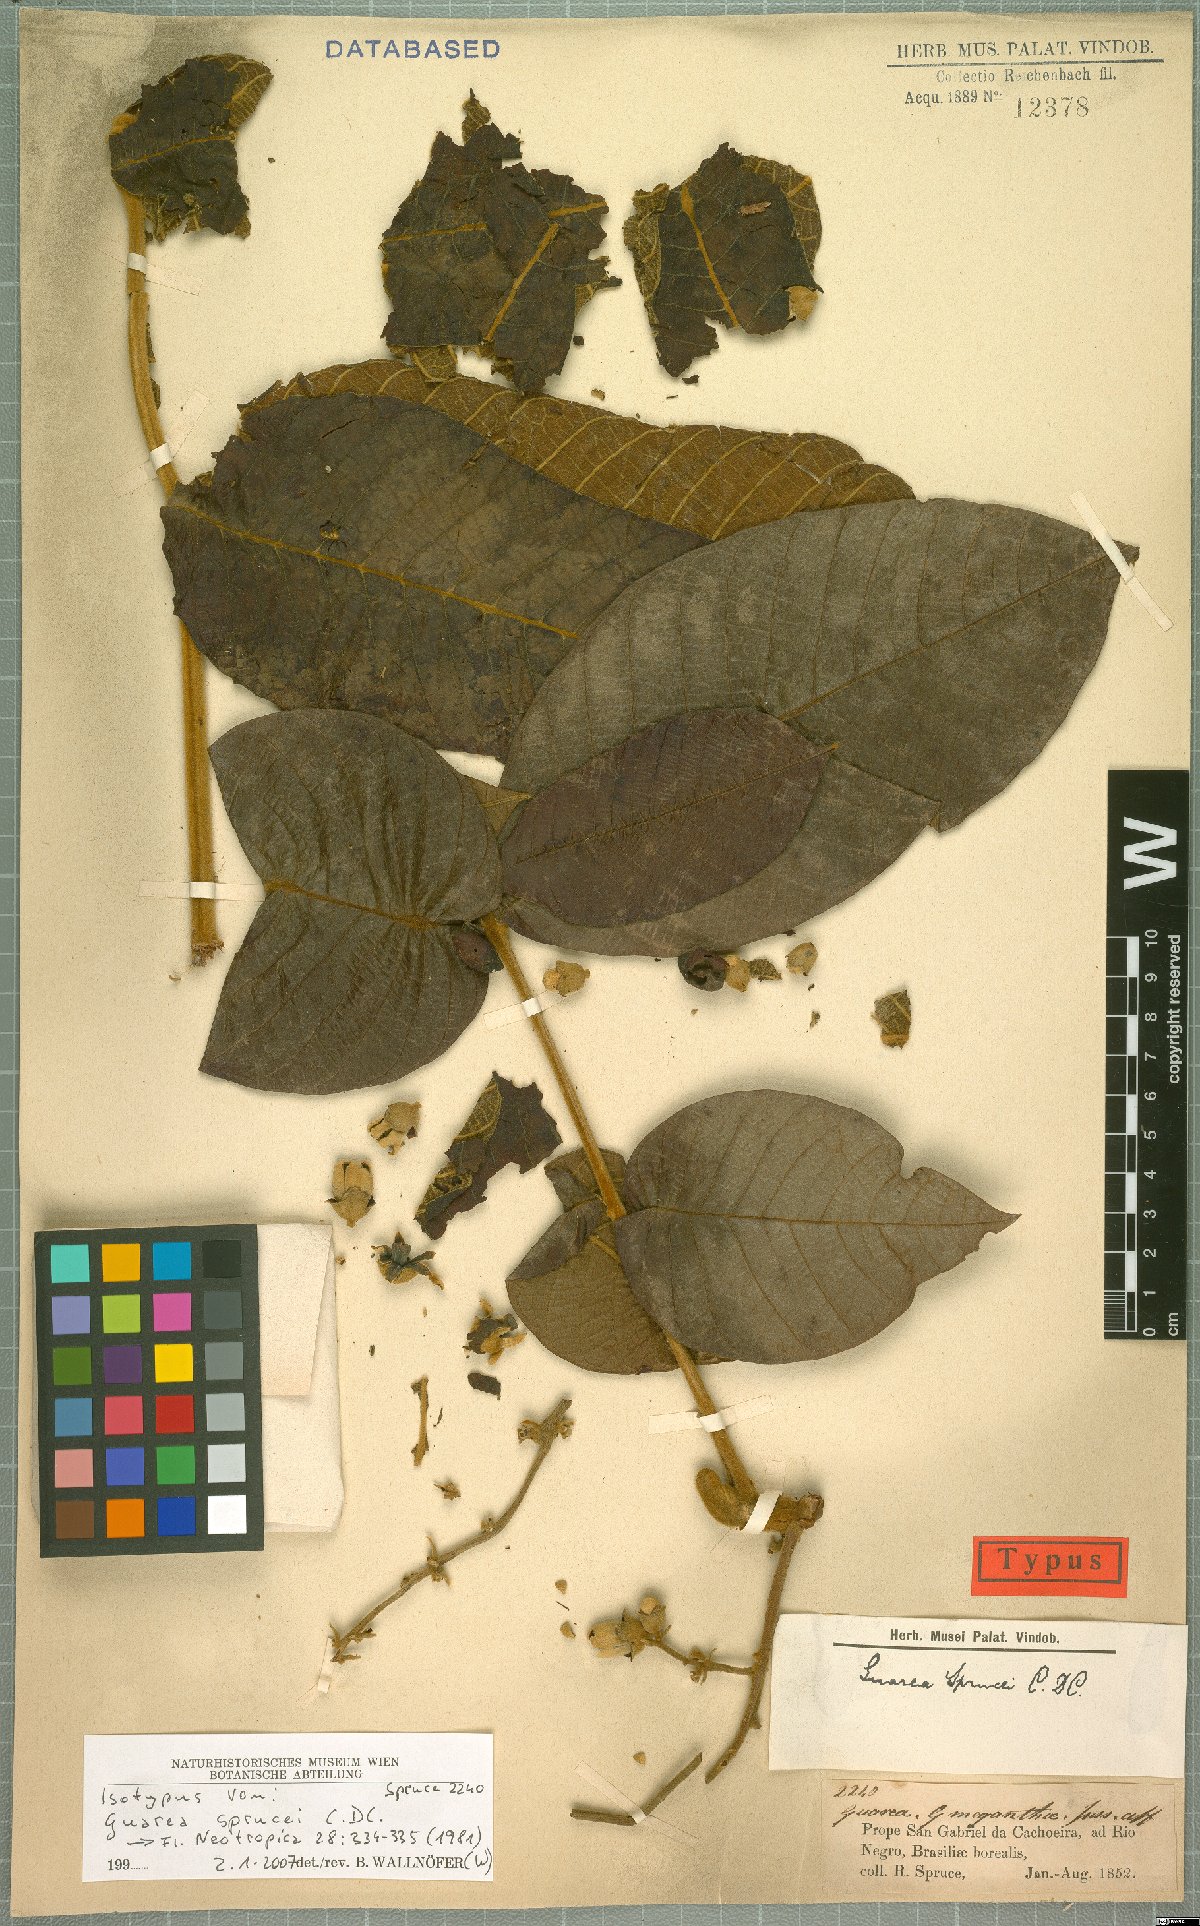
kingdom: Plantae
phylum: Tracheophyta
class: Magnoliopsida
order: Sapindales
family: Meliaceae
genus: Guarea
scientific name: Guarea sprucei
